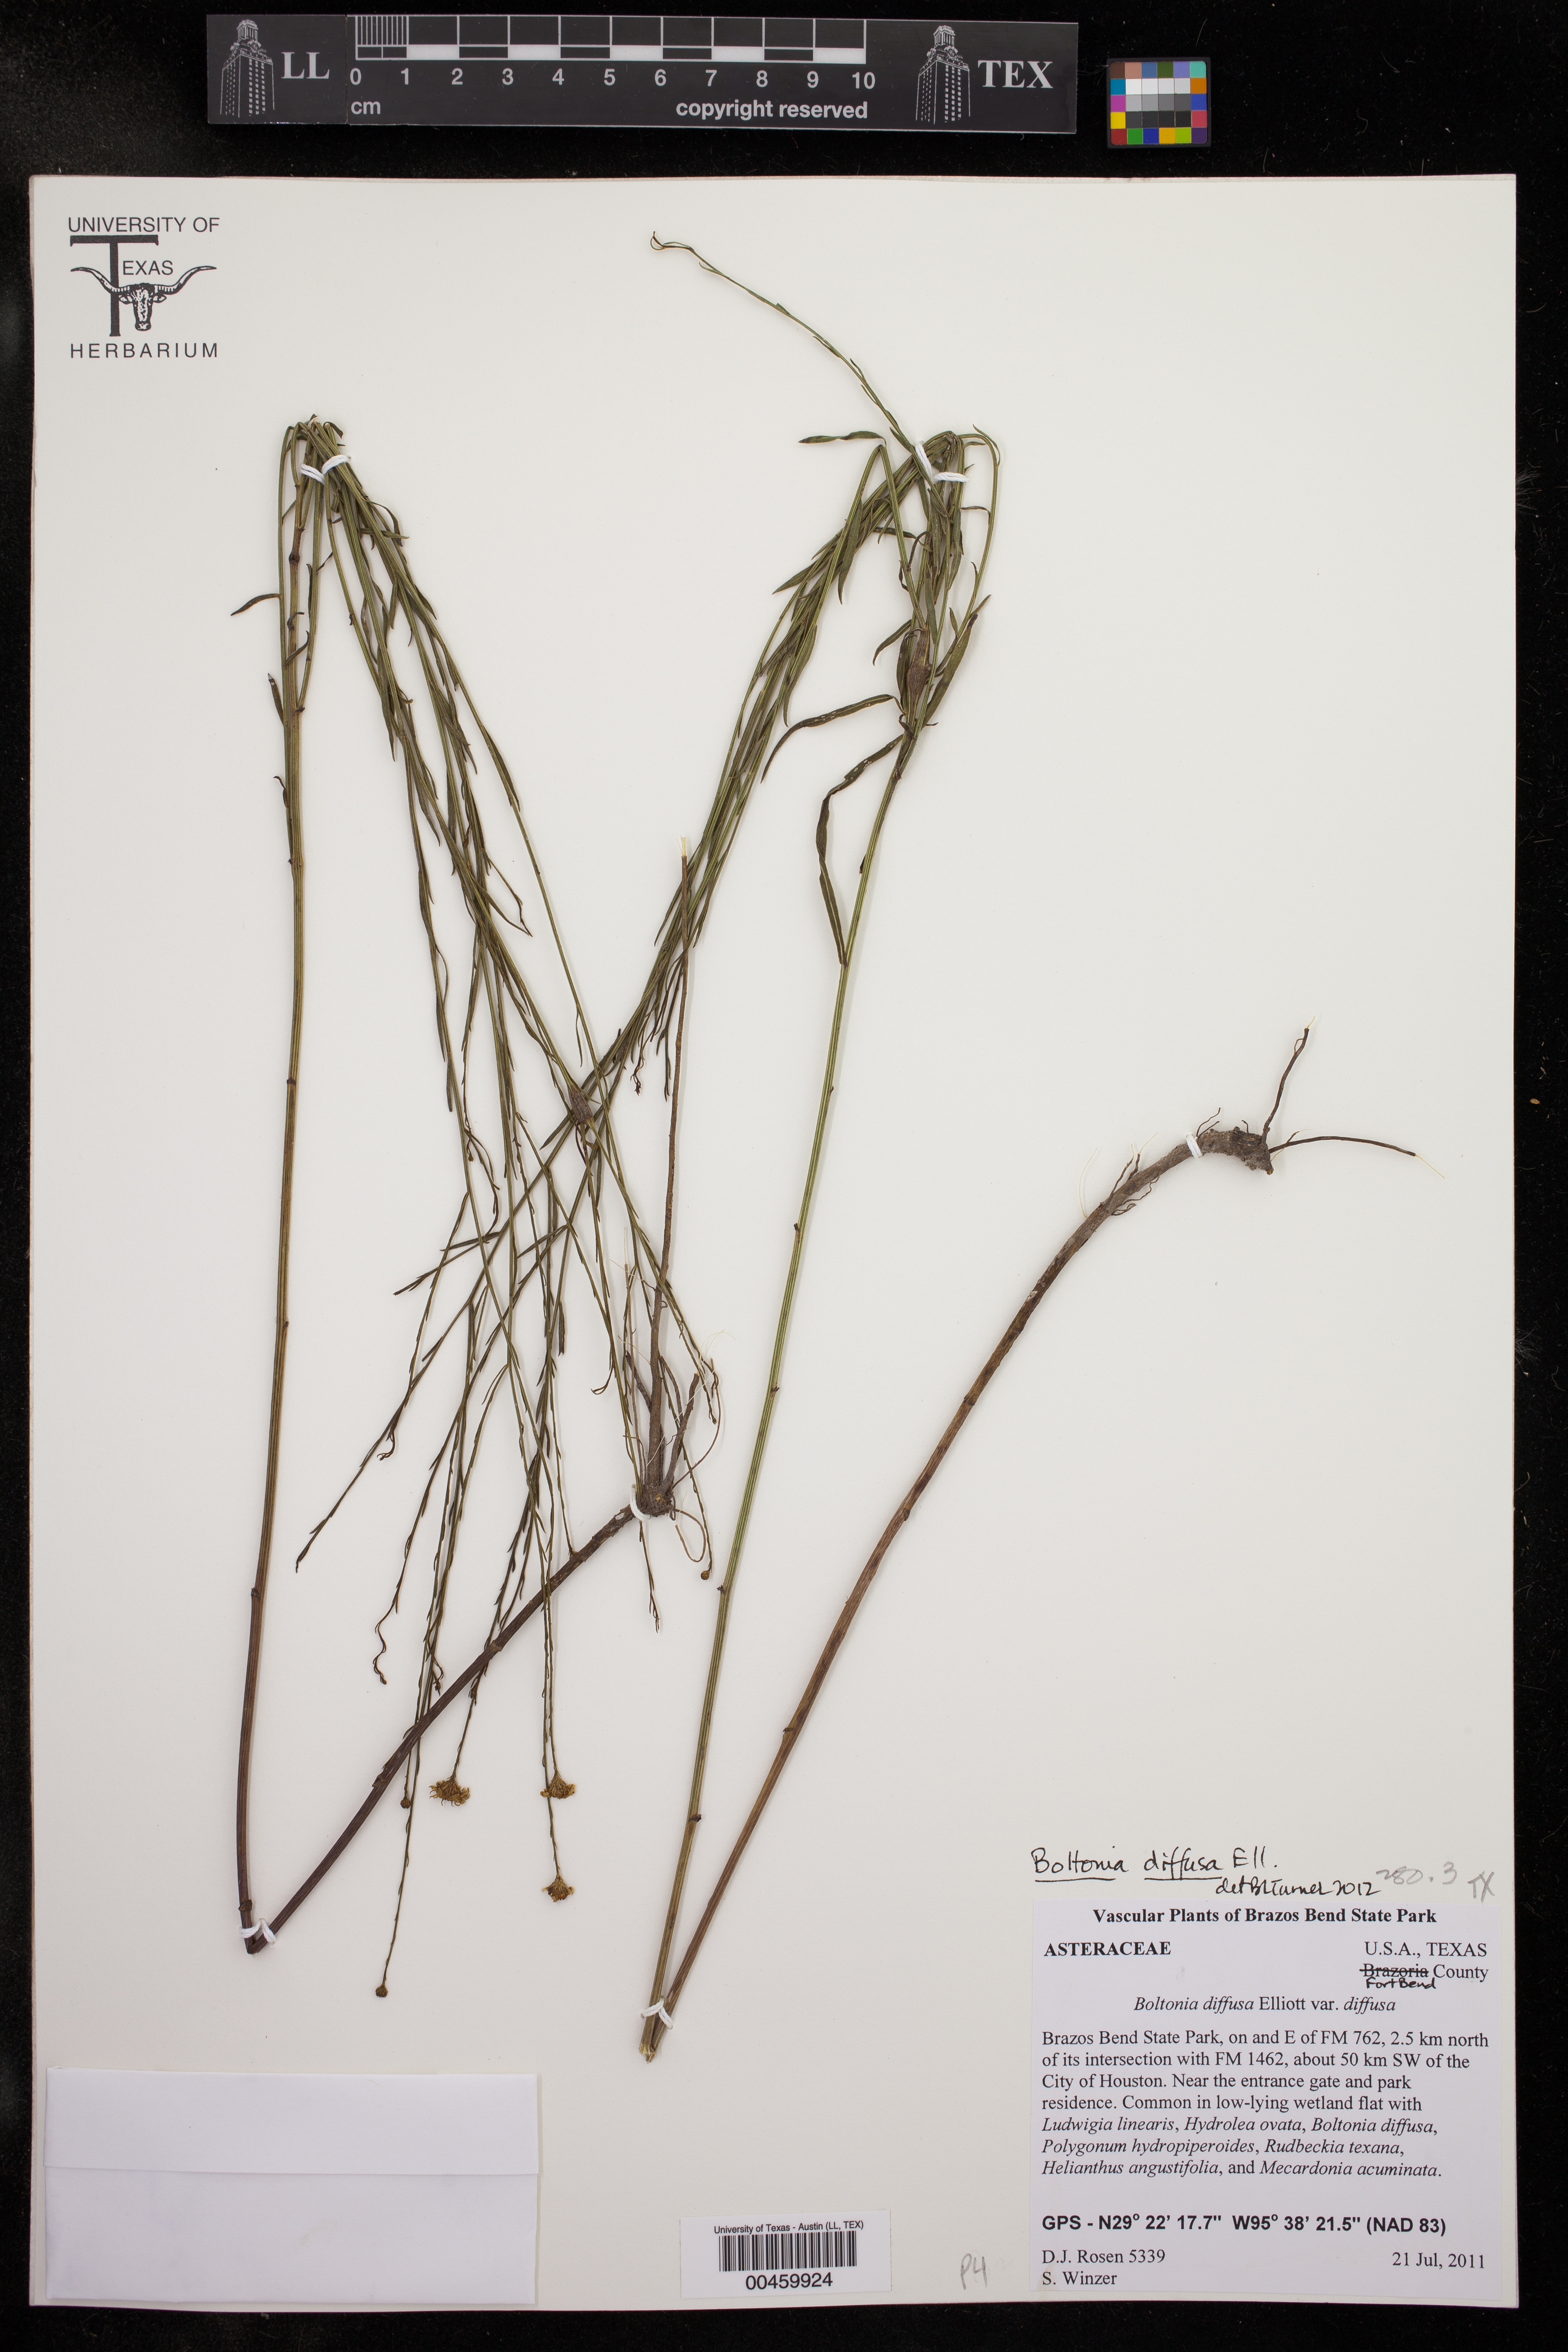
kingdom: Plantae
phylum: Tracheophyta
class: Magnoliopsida
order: Asterales
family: Asteraceae
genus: Boltonia
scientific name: Boltonia diffusa
